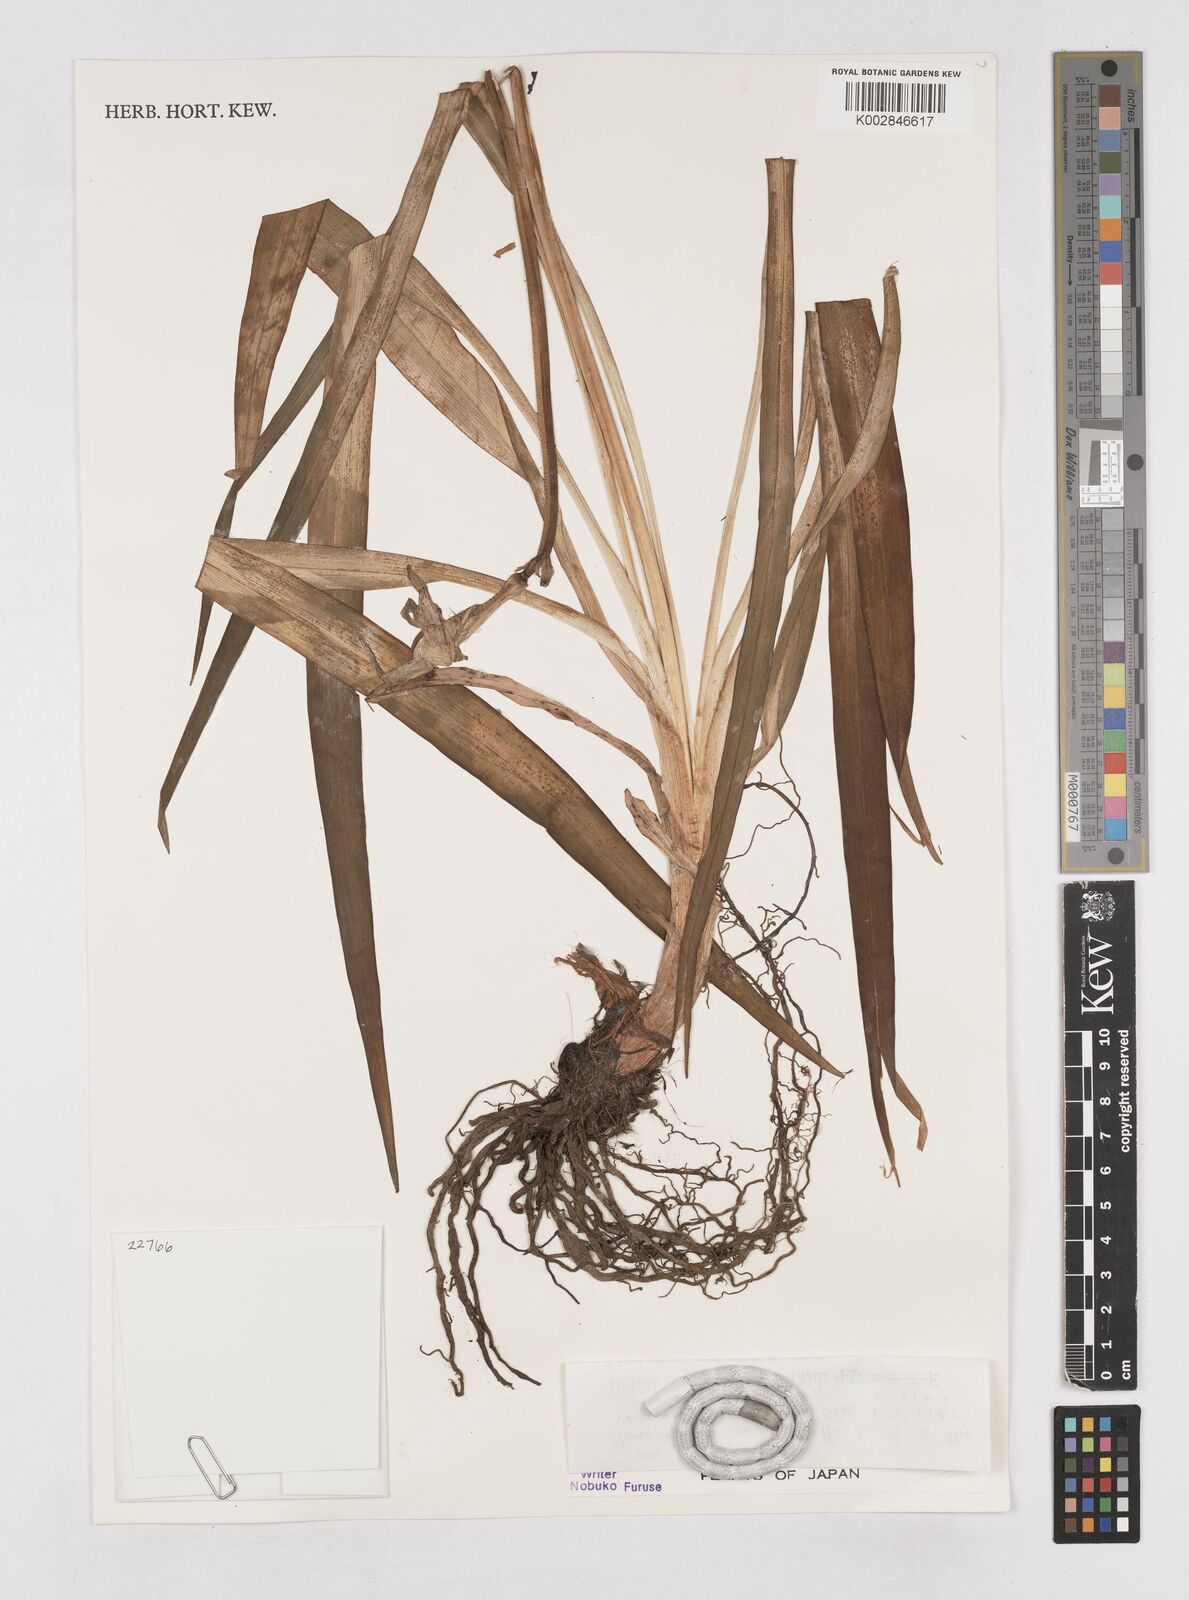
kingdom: Plantae
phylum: Tracheophyta
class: Liliopsida
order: Asparagales
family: Asphodelaceae
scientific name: Asphodelaceae
